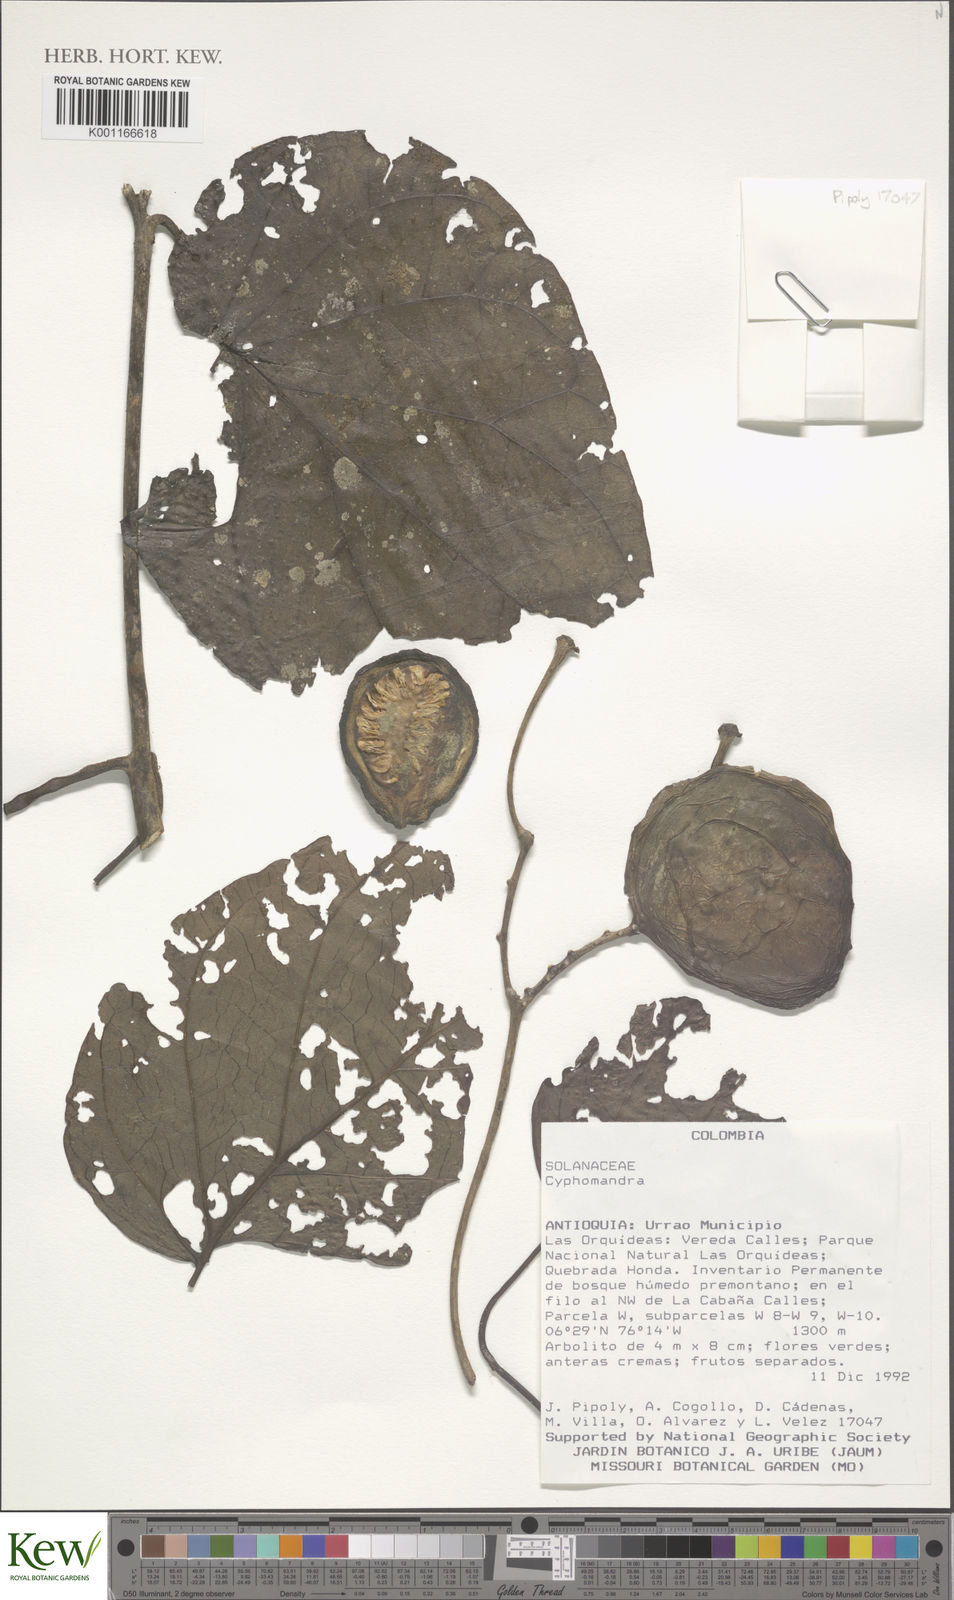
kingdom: Plantae
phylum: Tracheophyta
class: Magnoliopsida
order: Solanales
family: Solanaceae
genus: Solanum
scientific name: Solanum
